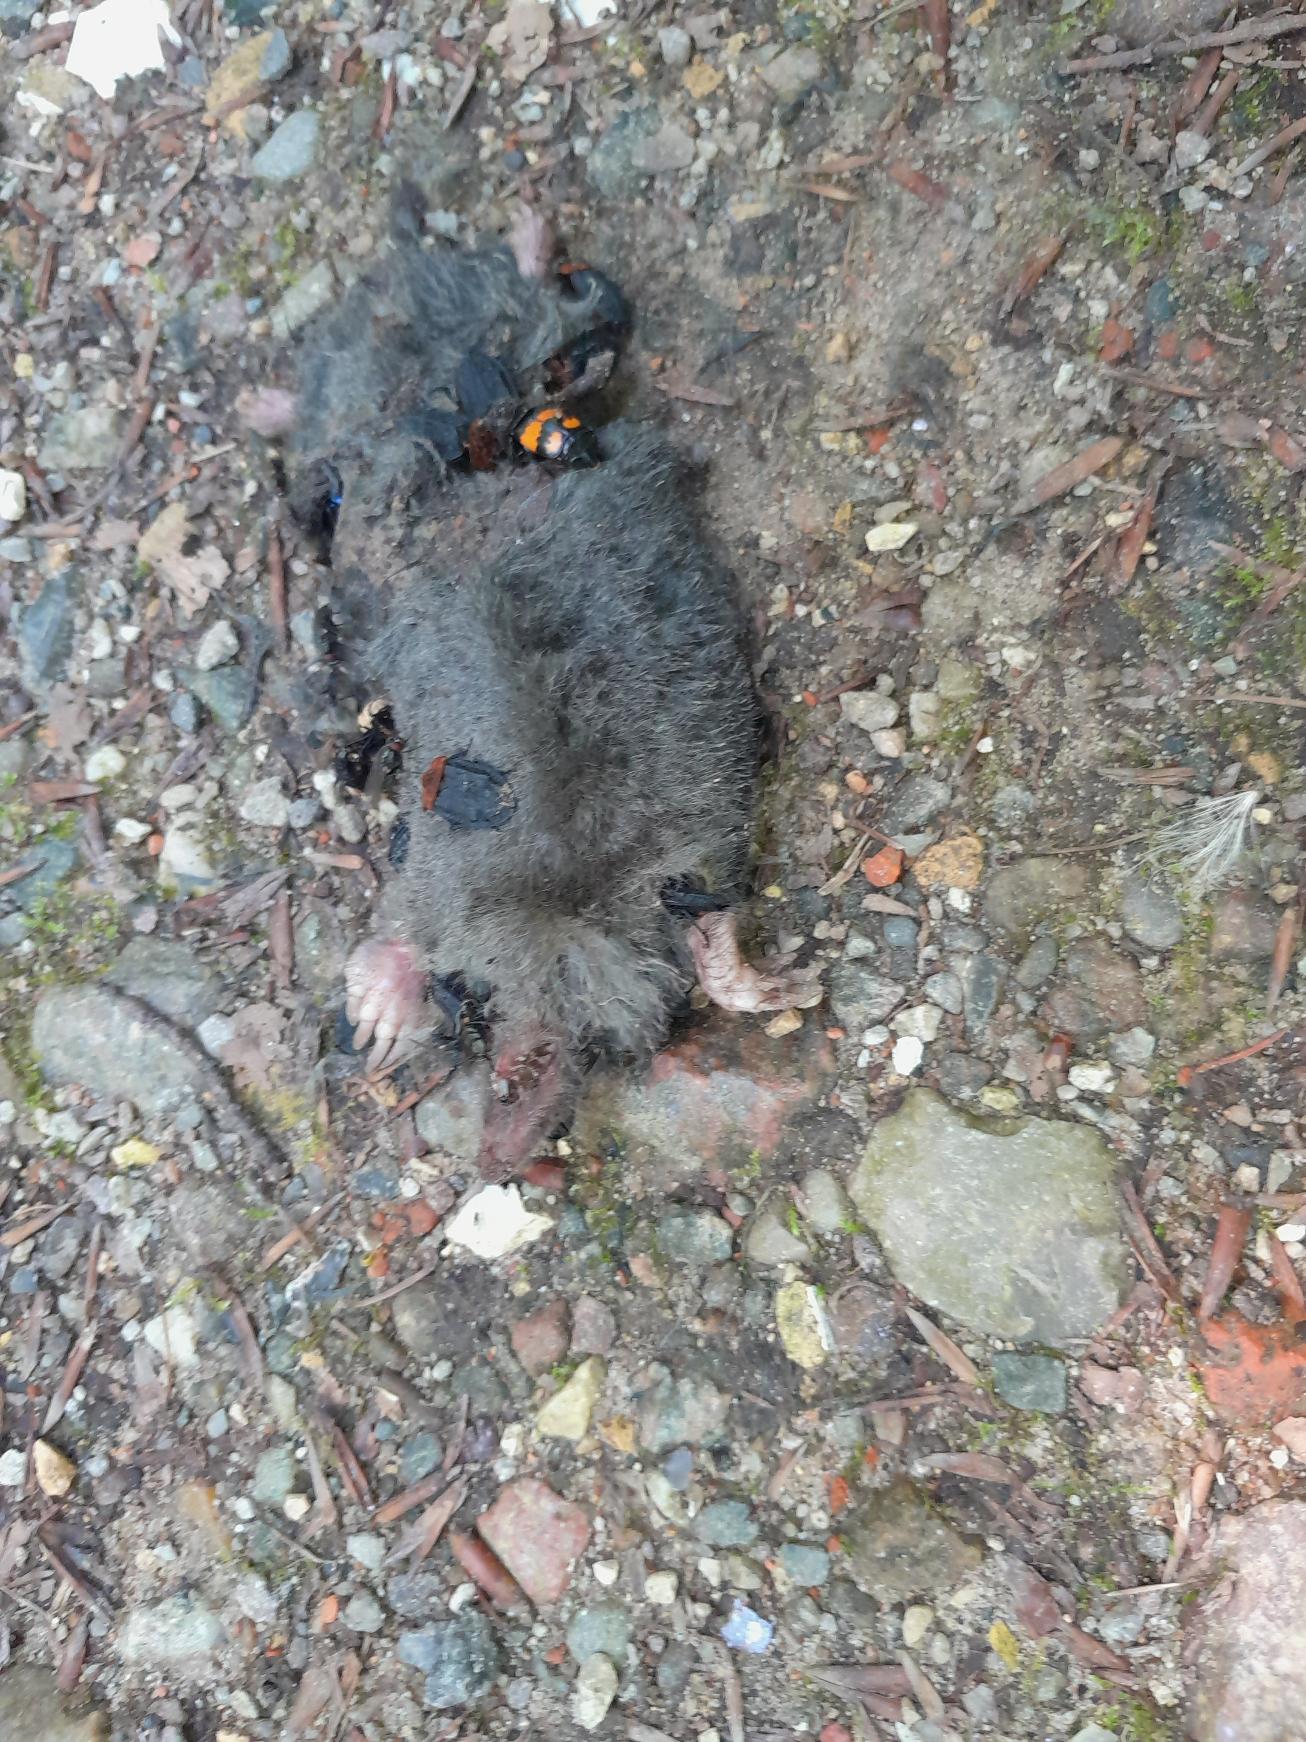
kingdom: Animalia
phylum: Chordata
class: Mammalia
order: Soricomorpha
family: Talpidae
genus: Talpa
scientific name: Talpa europaea
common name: Muldvarp
